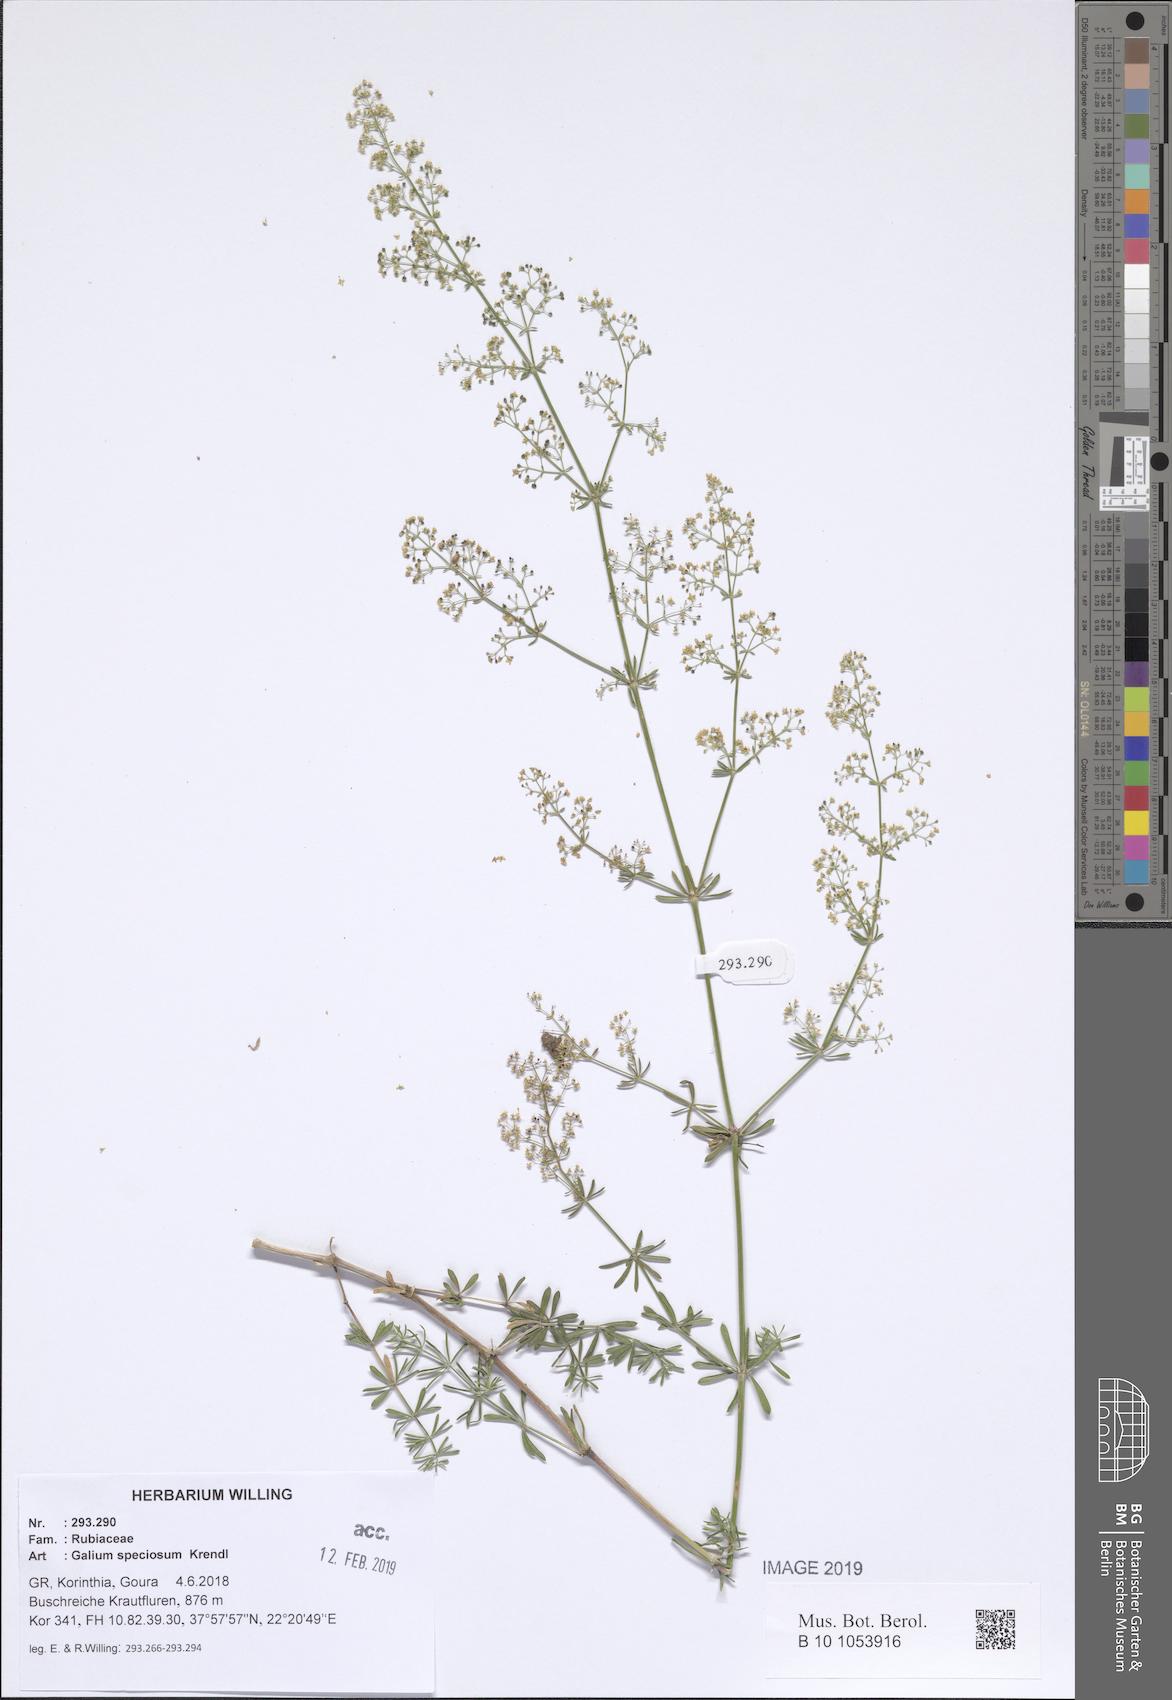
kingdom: Plantae
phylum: Tracheophyta
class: Magnoliopsida
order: Gentianales
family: Rubiaceae
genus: Galium
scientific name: Galium speciosum
